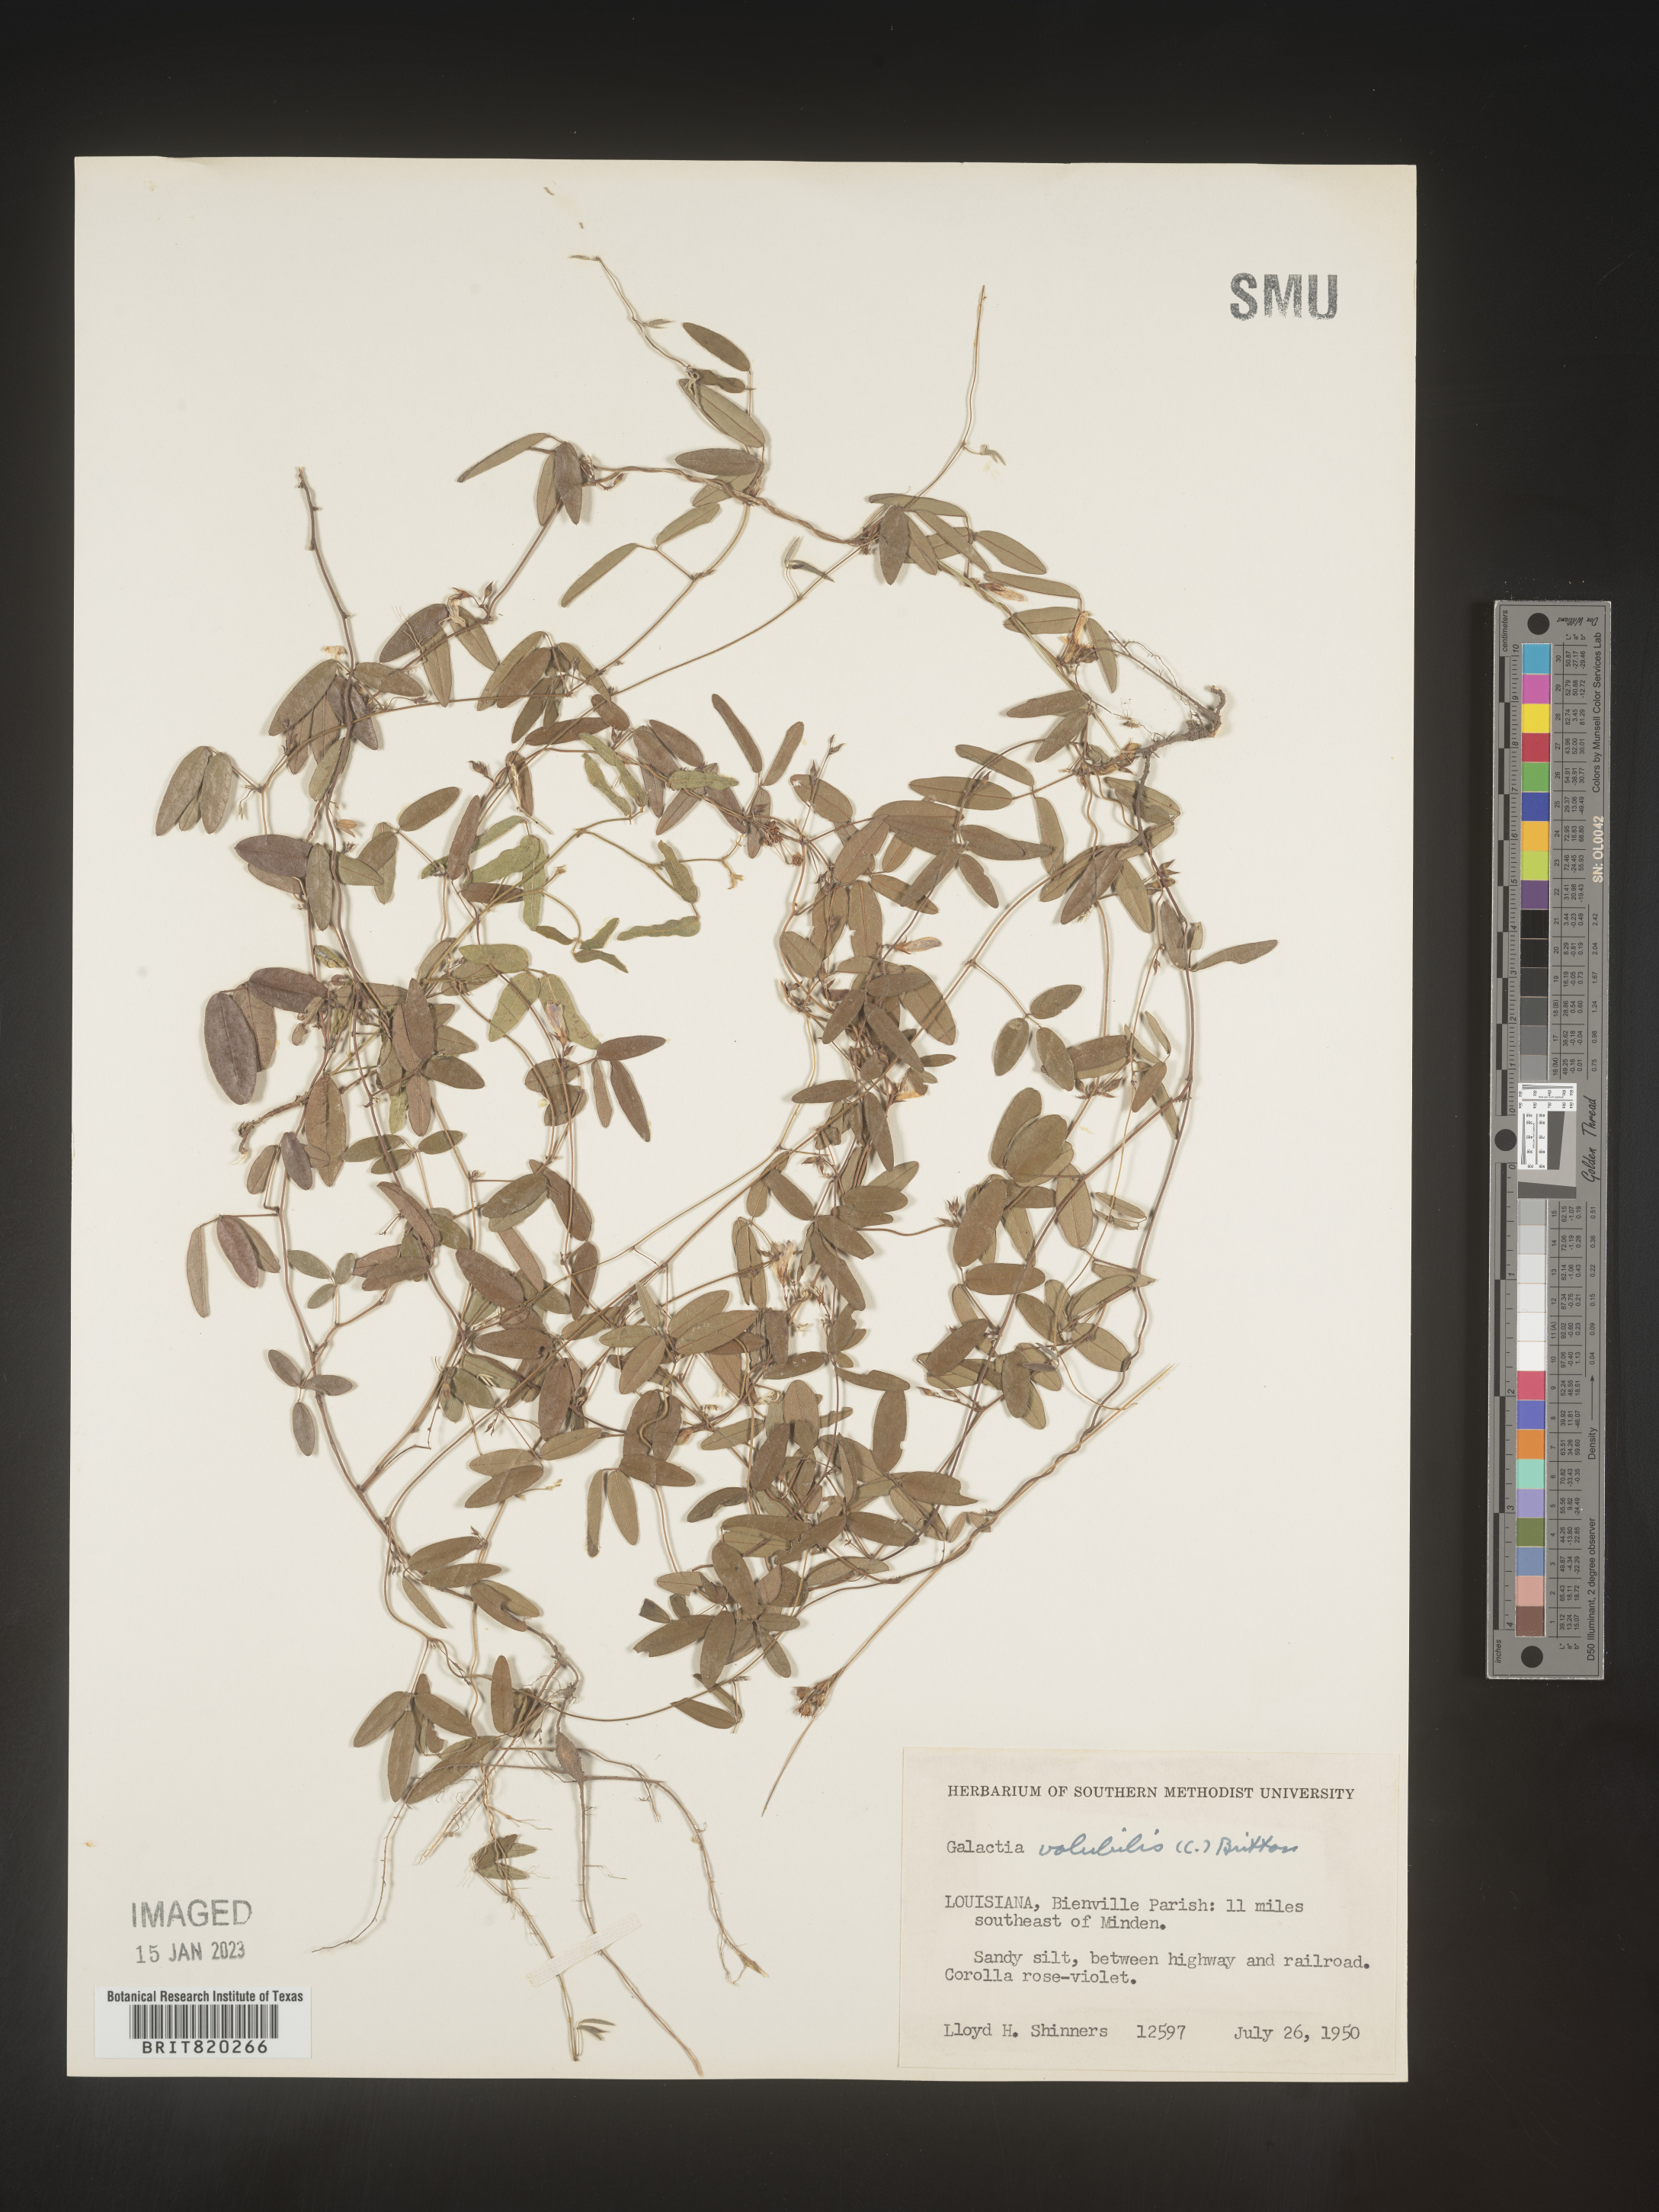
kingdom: Plantae
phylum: Tracheophyta
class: Magnoliopsida
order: Fabales
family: Fabaceae
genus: Galactia
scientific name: Galactia volubilis
